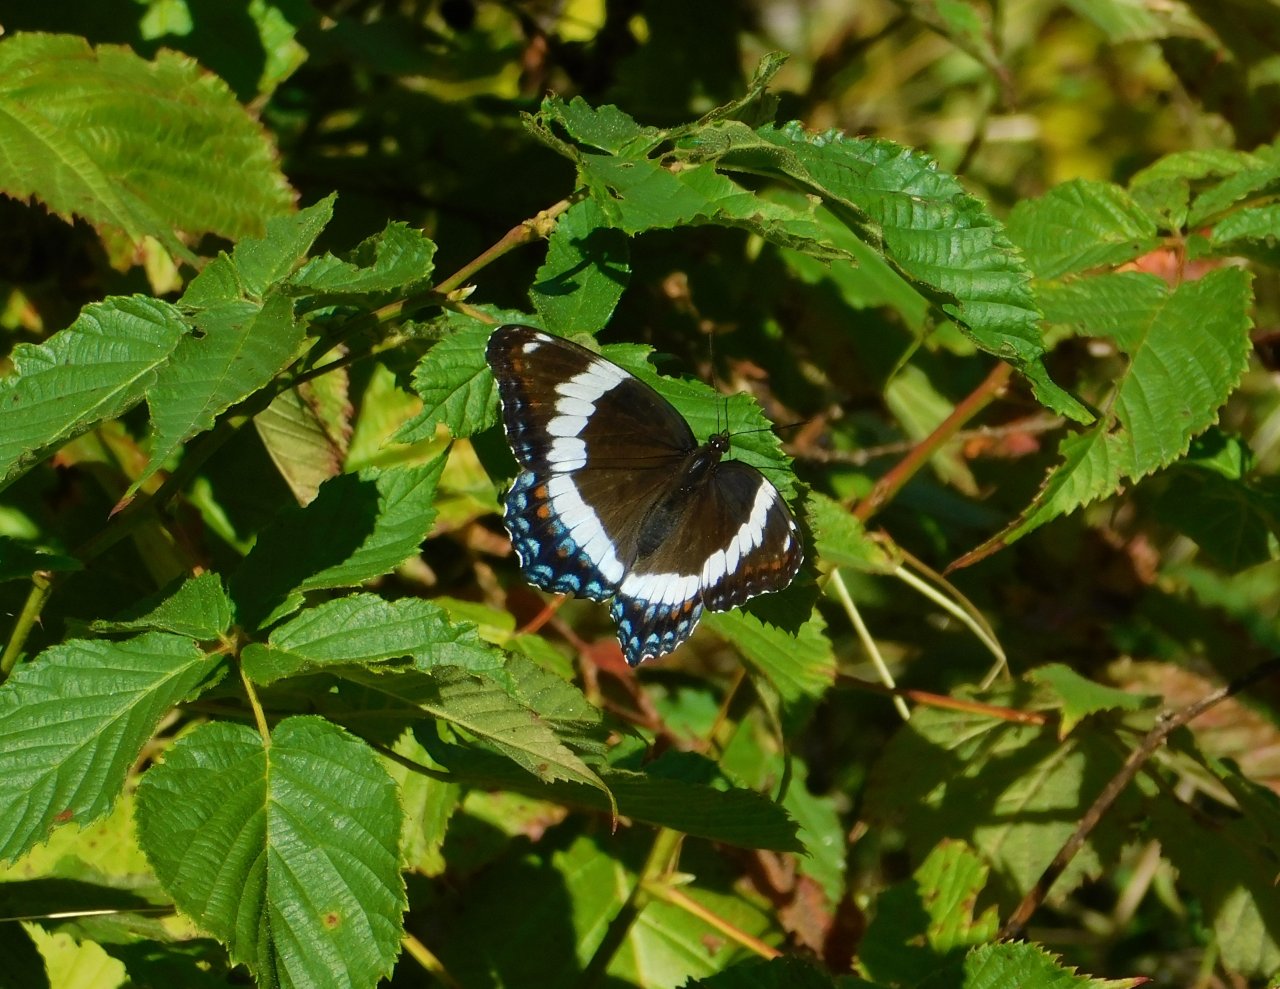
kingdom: Animalia
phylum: Arthropoda
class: Insecta
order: Lepidoptera
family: Nymphalidae
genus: Limenitis
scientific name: Limenitis arthemis
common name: Red-spotted Admiral
